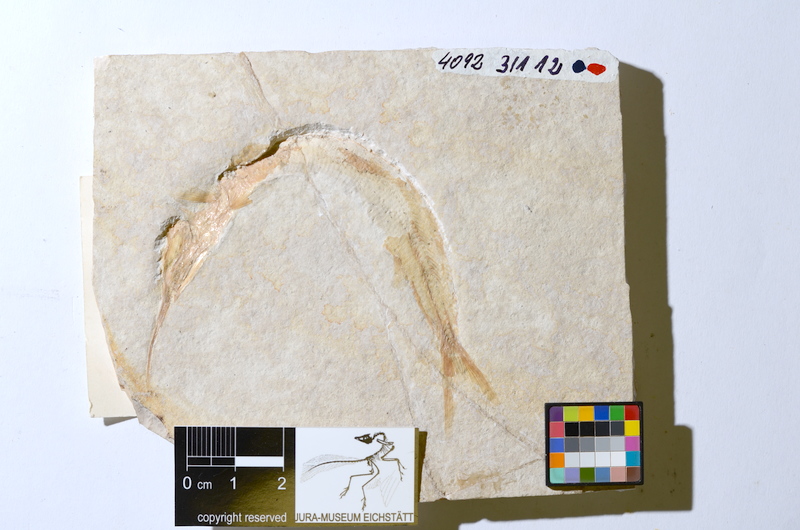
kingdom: Animalia
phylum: Chordata
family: Aspidorhynchidae
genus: Aspidorhynchus
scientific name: Aspidorhynchus acutirostris
